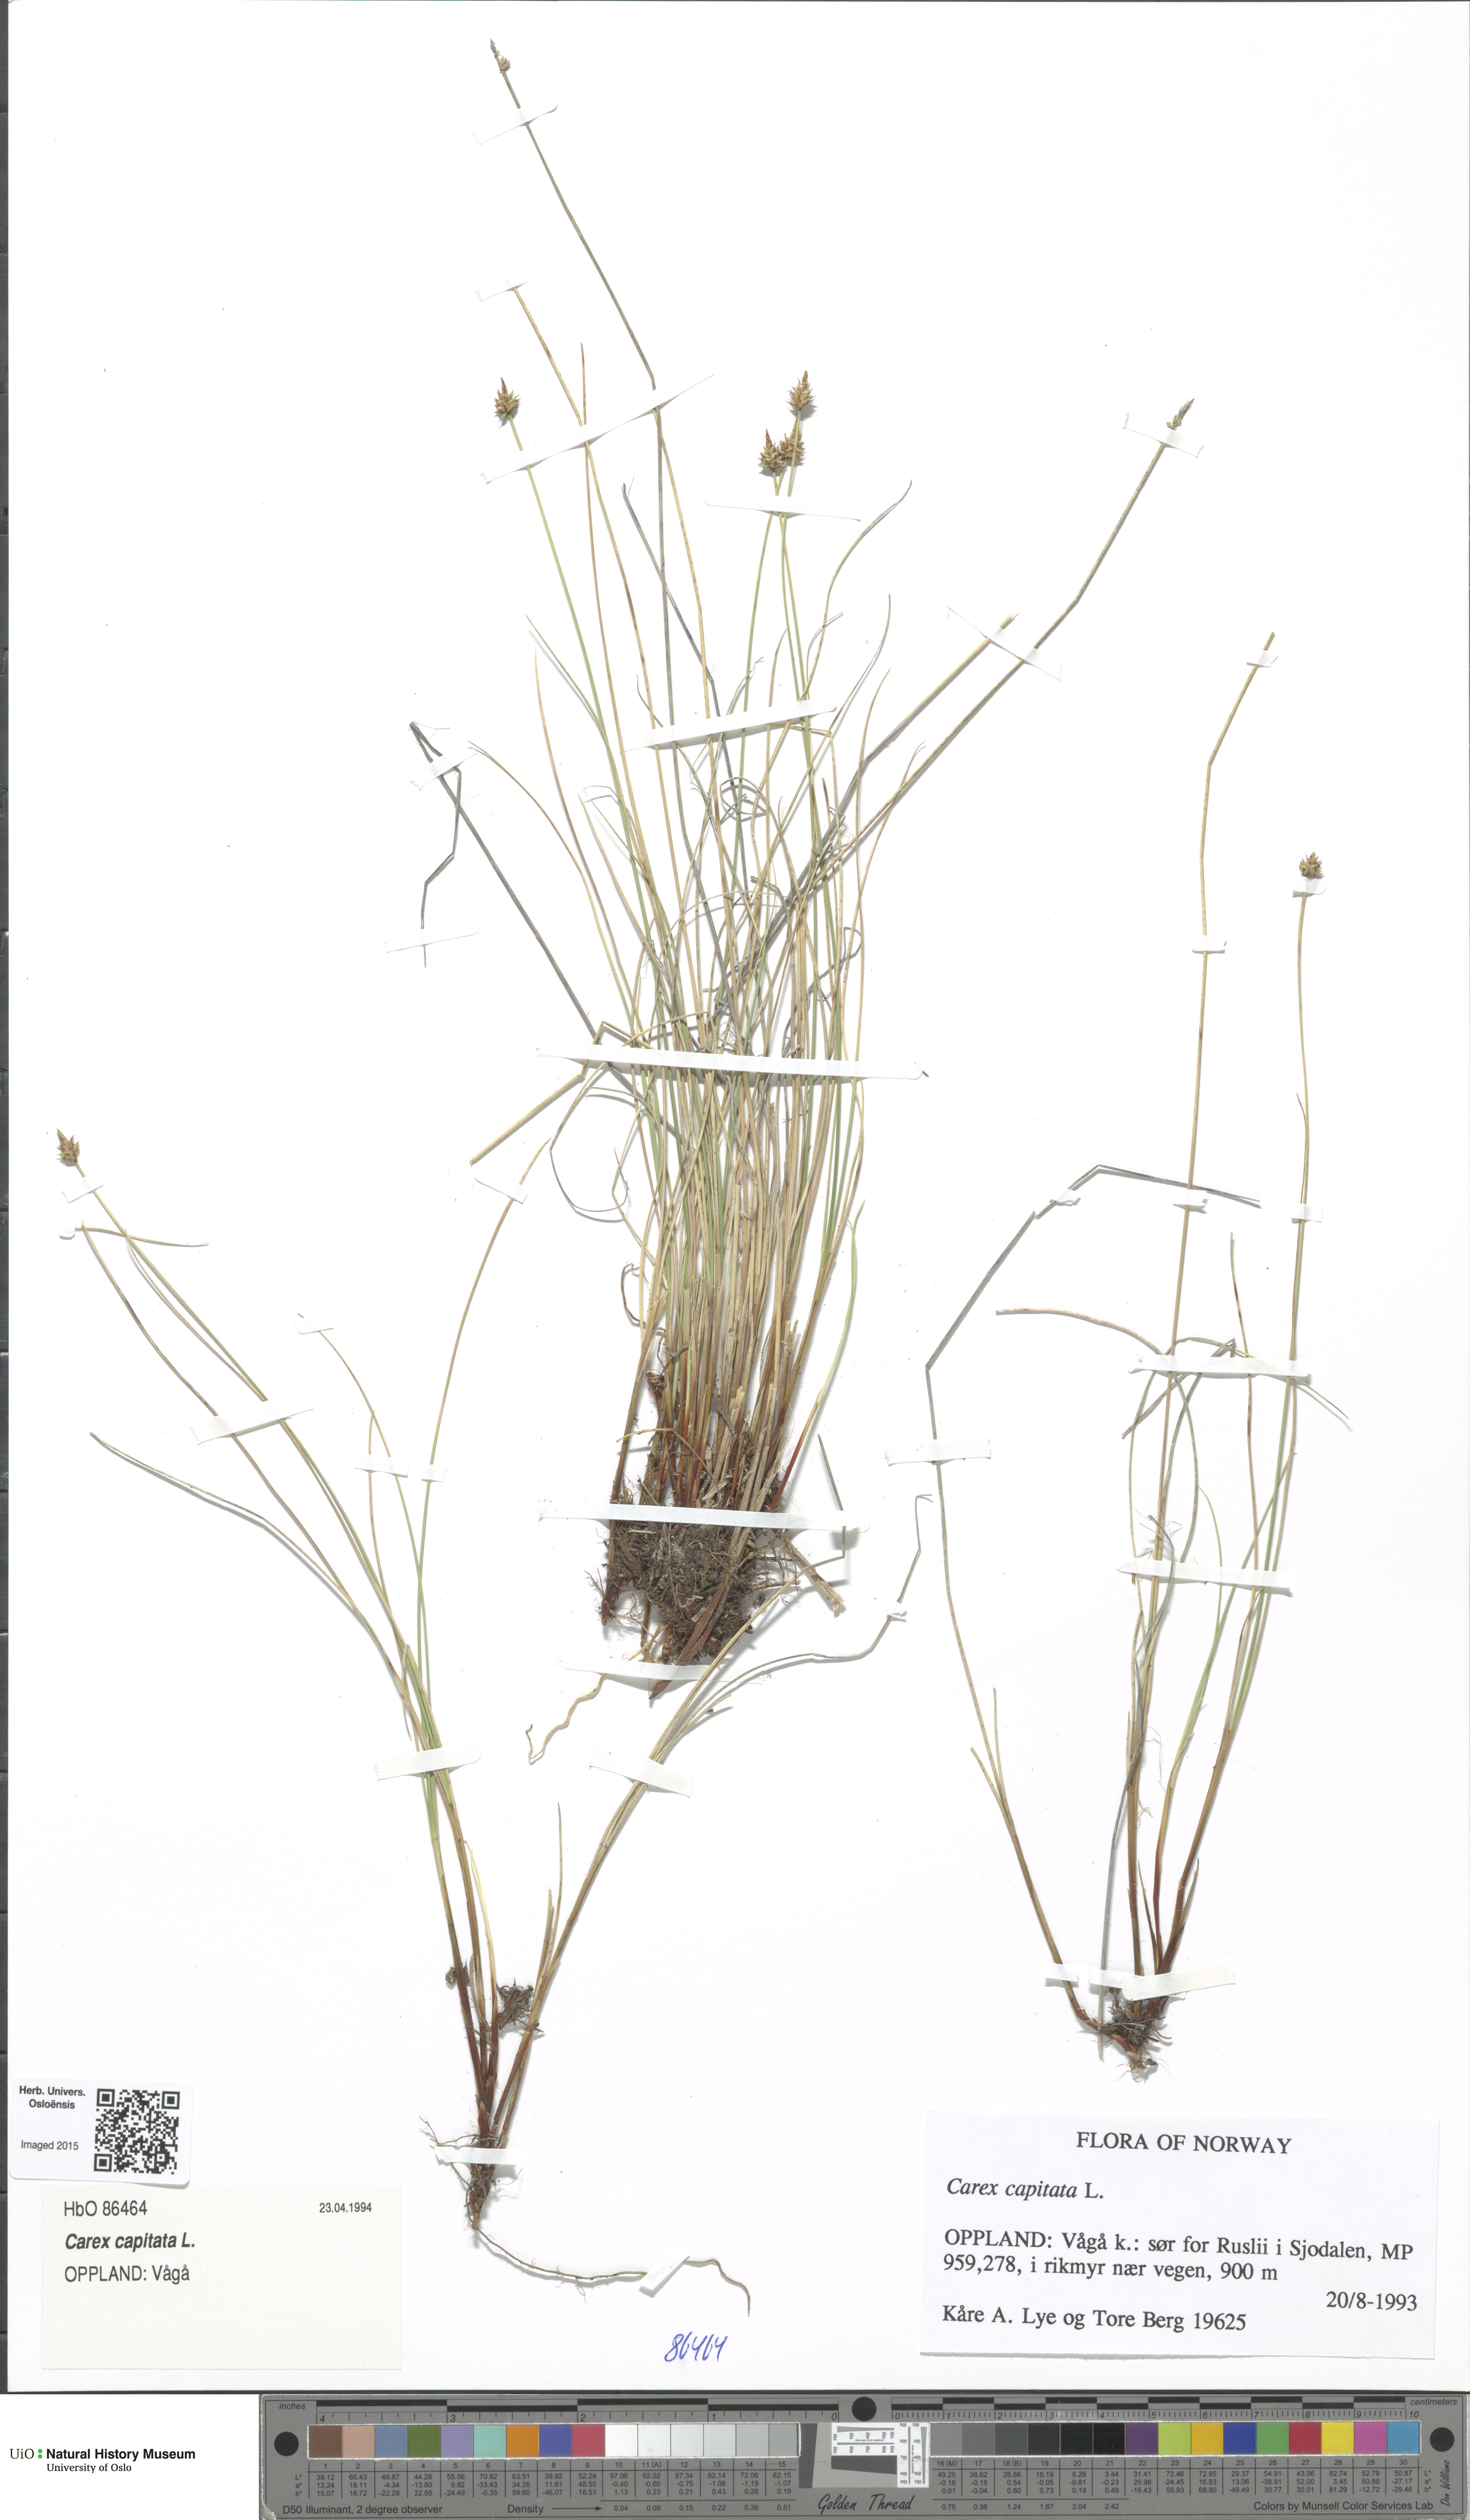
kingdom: Plantae
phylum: Tracheophyta
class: Liliopsida
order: Poales
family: Cyperaceae
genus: Carex
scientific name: Carex capitata
